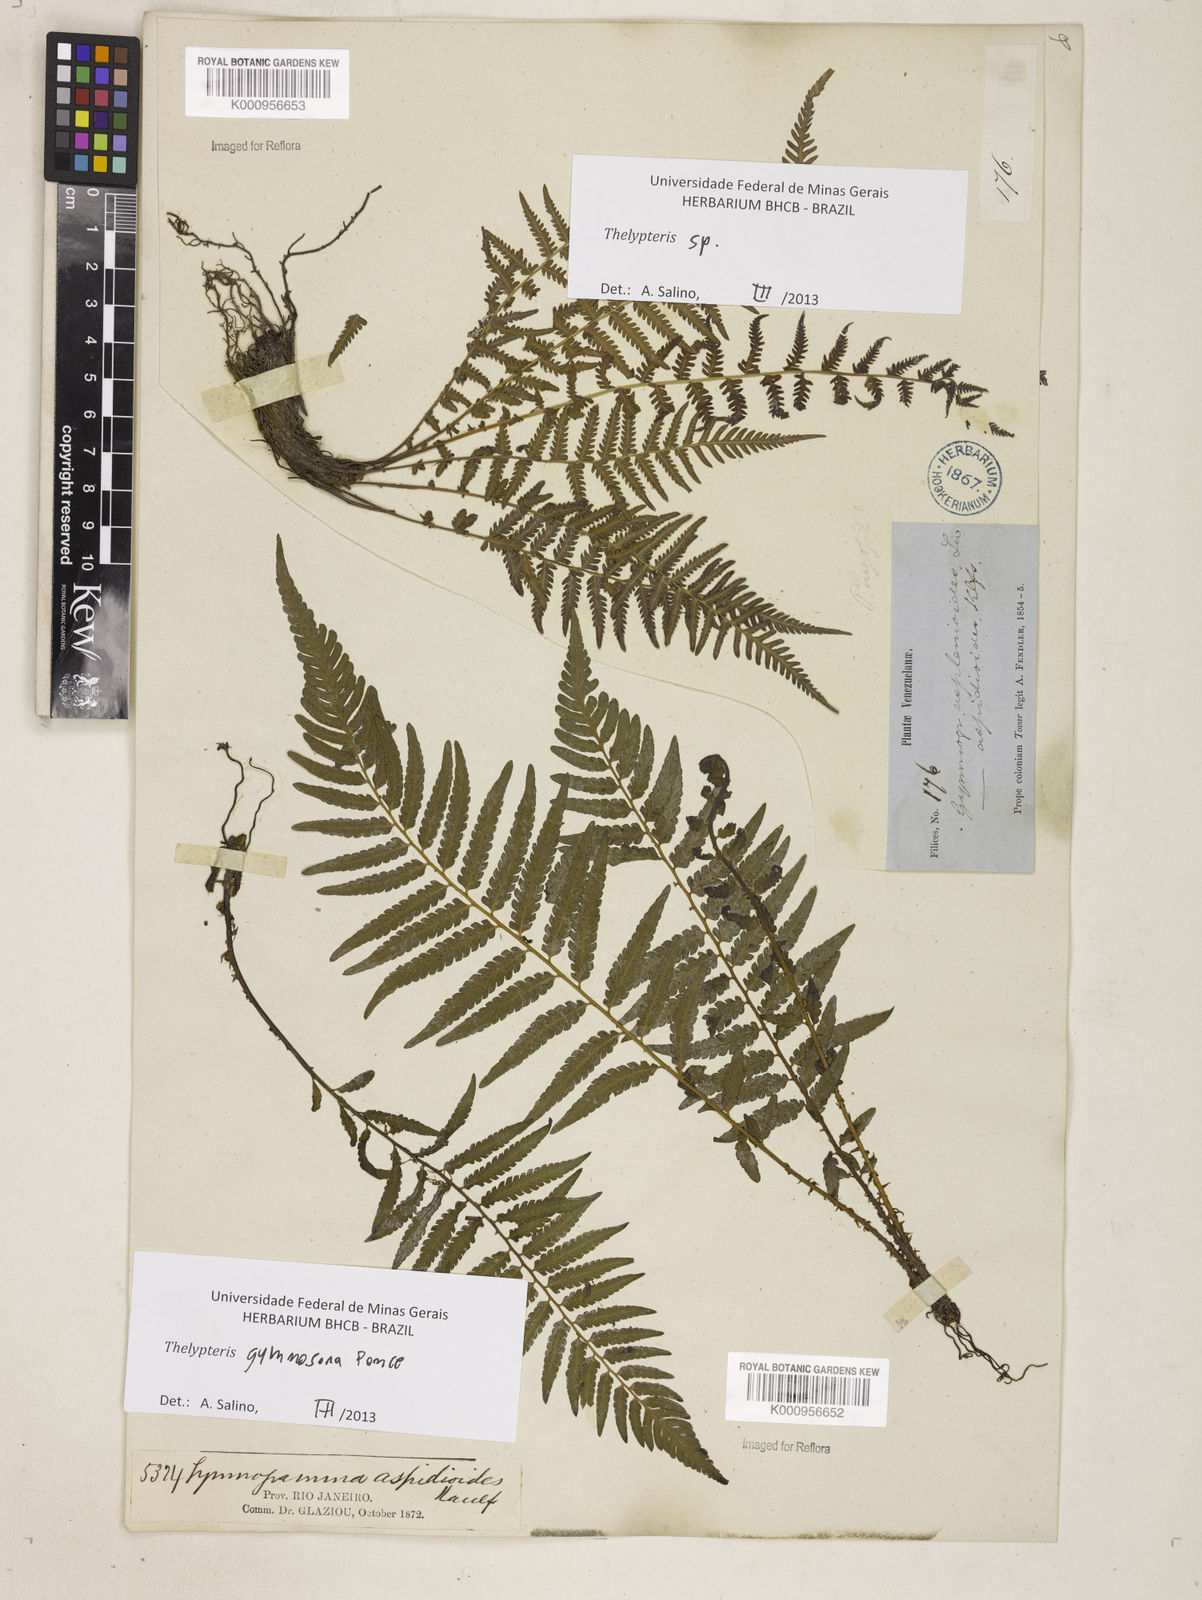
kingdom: Plantae
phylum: Tracheophyta
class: Polypodiopsida
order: Polypodiales
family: Thelypteridaceae
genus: Amauropelta
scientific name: Amauropelta
